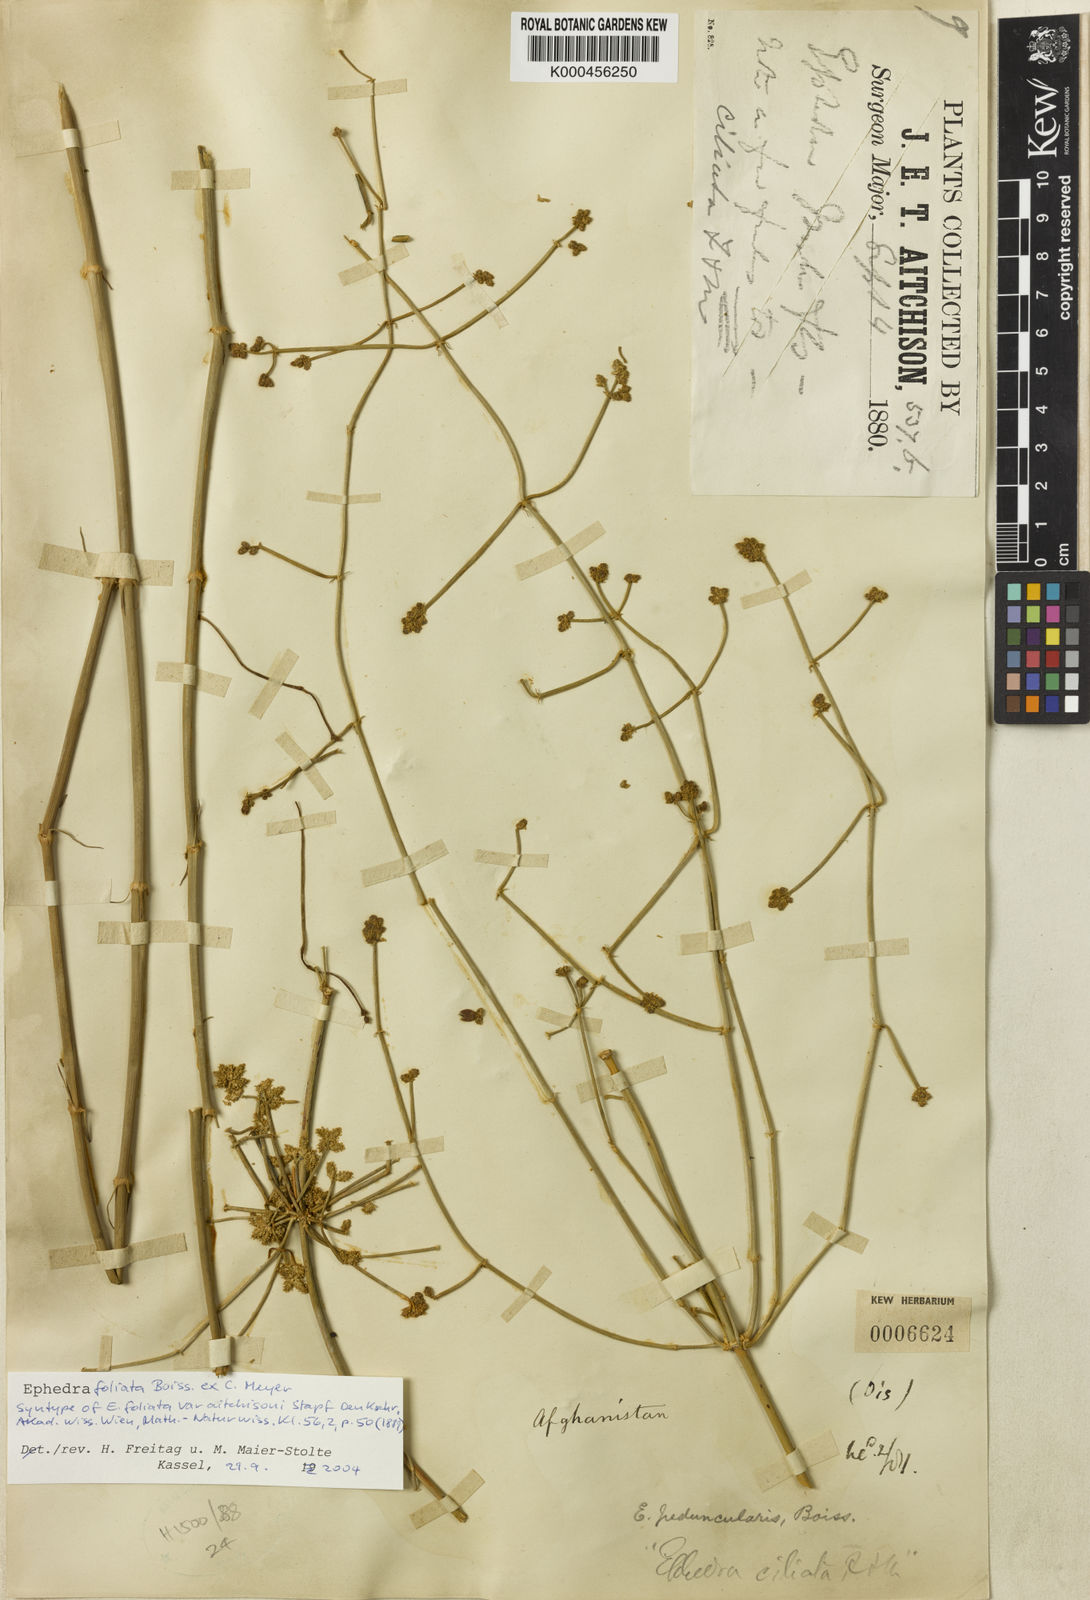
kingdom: Plantae
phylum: Tracheophyta
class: Gnetopsida
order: Ephedrales
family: Ephedraceae
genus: Ephedra
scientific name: Ephedra ciliata
